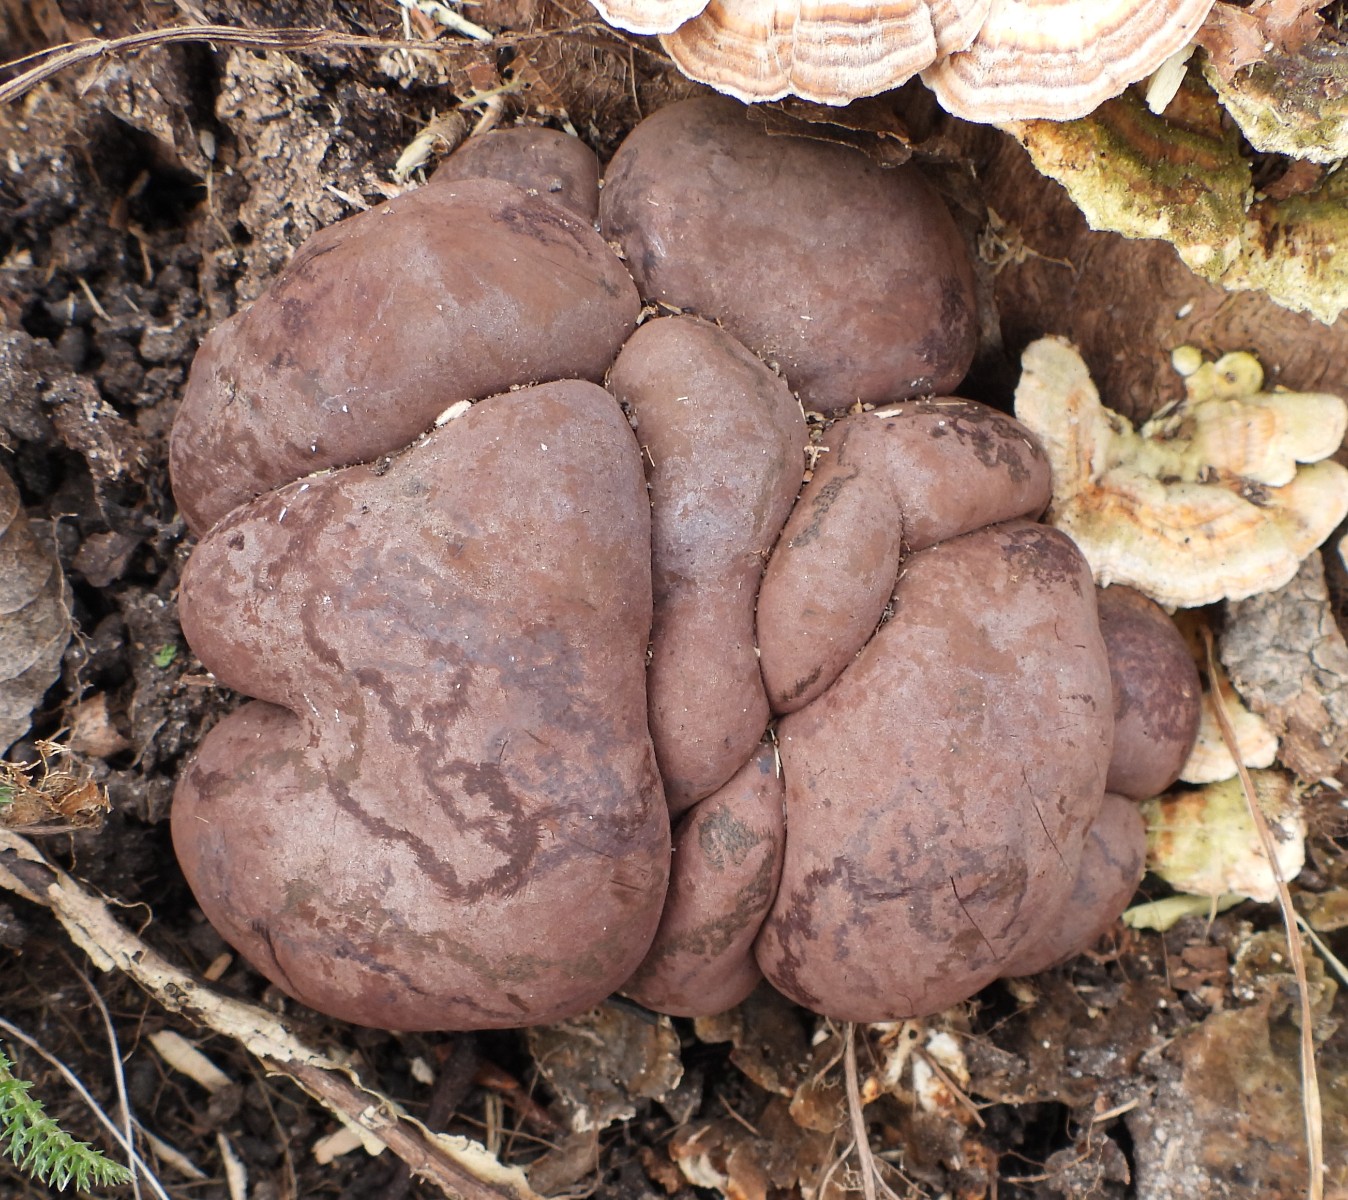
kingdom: Fungi
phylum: Ascomycota
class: Sordariomycetes
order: Xylariales
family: Hypoxylaceae
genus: Daldinia
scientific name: Daldinia concentrica
